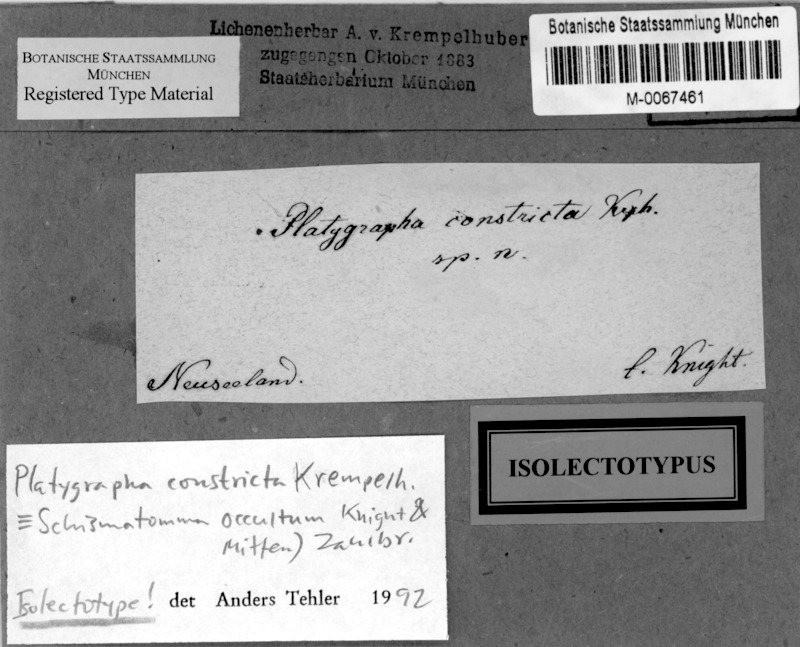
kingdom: Fungi
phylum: Ascomycota
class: Arthoniomycetes
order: Arthoniales
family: Roccellaceae
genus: Schismatomma
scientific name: Schismatomma occultum
